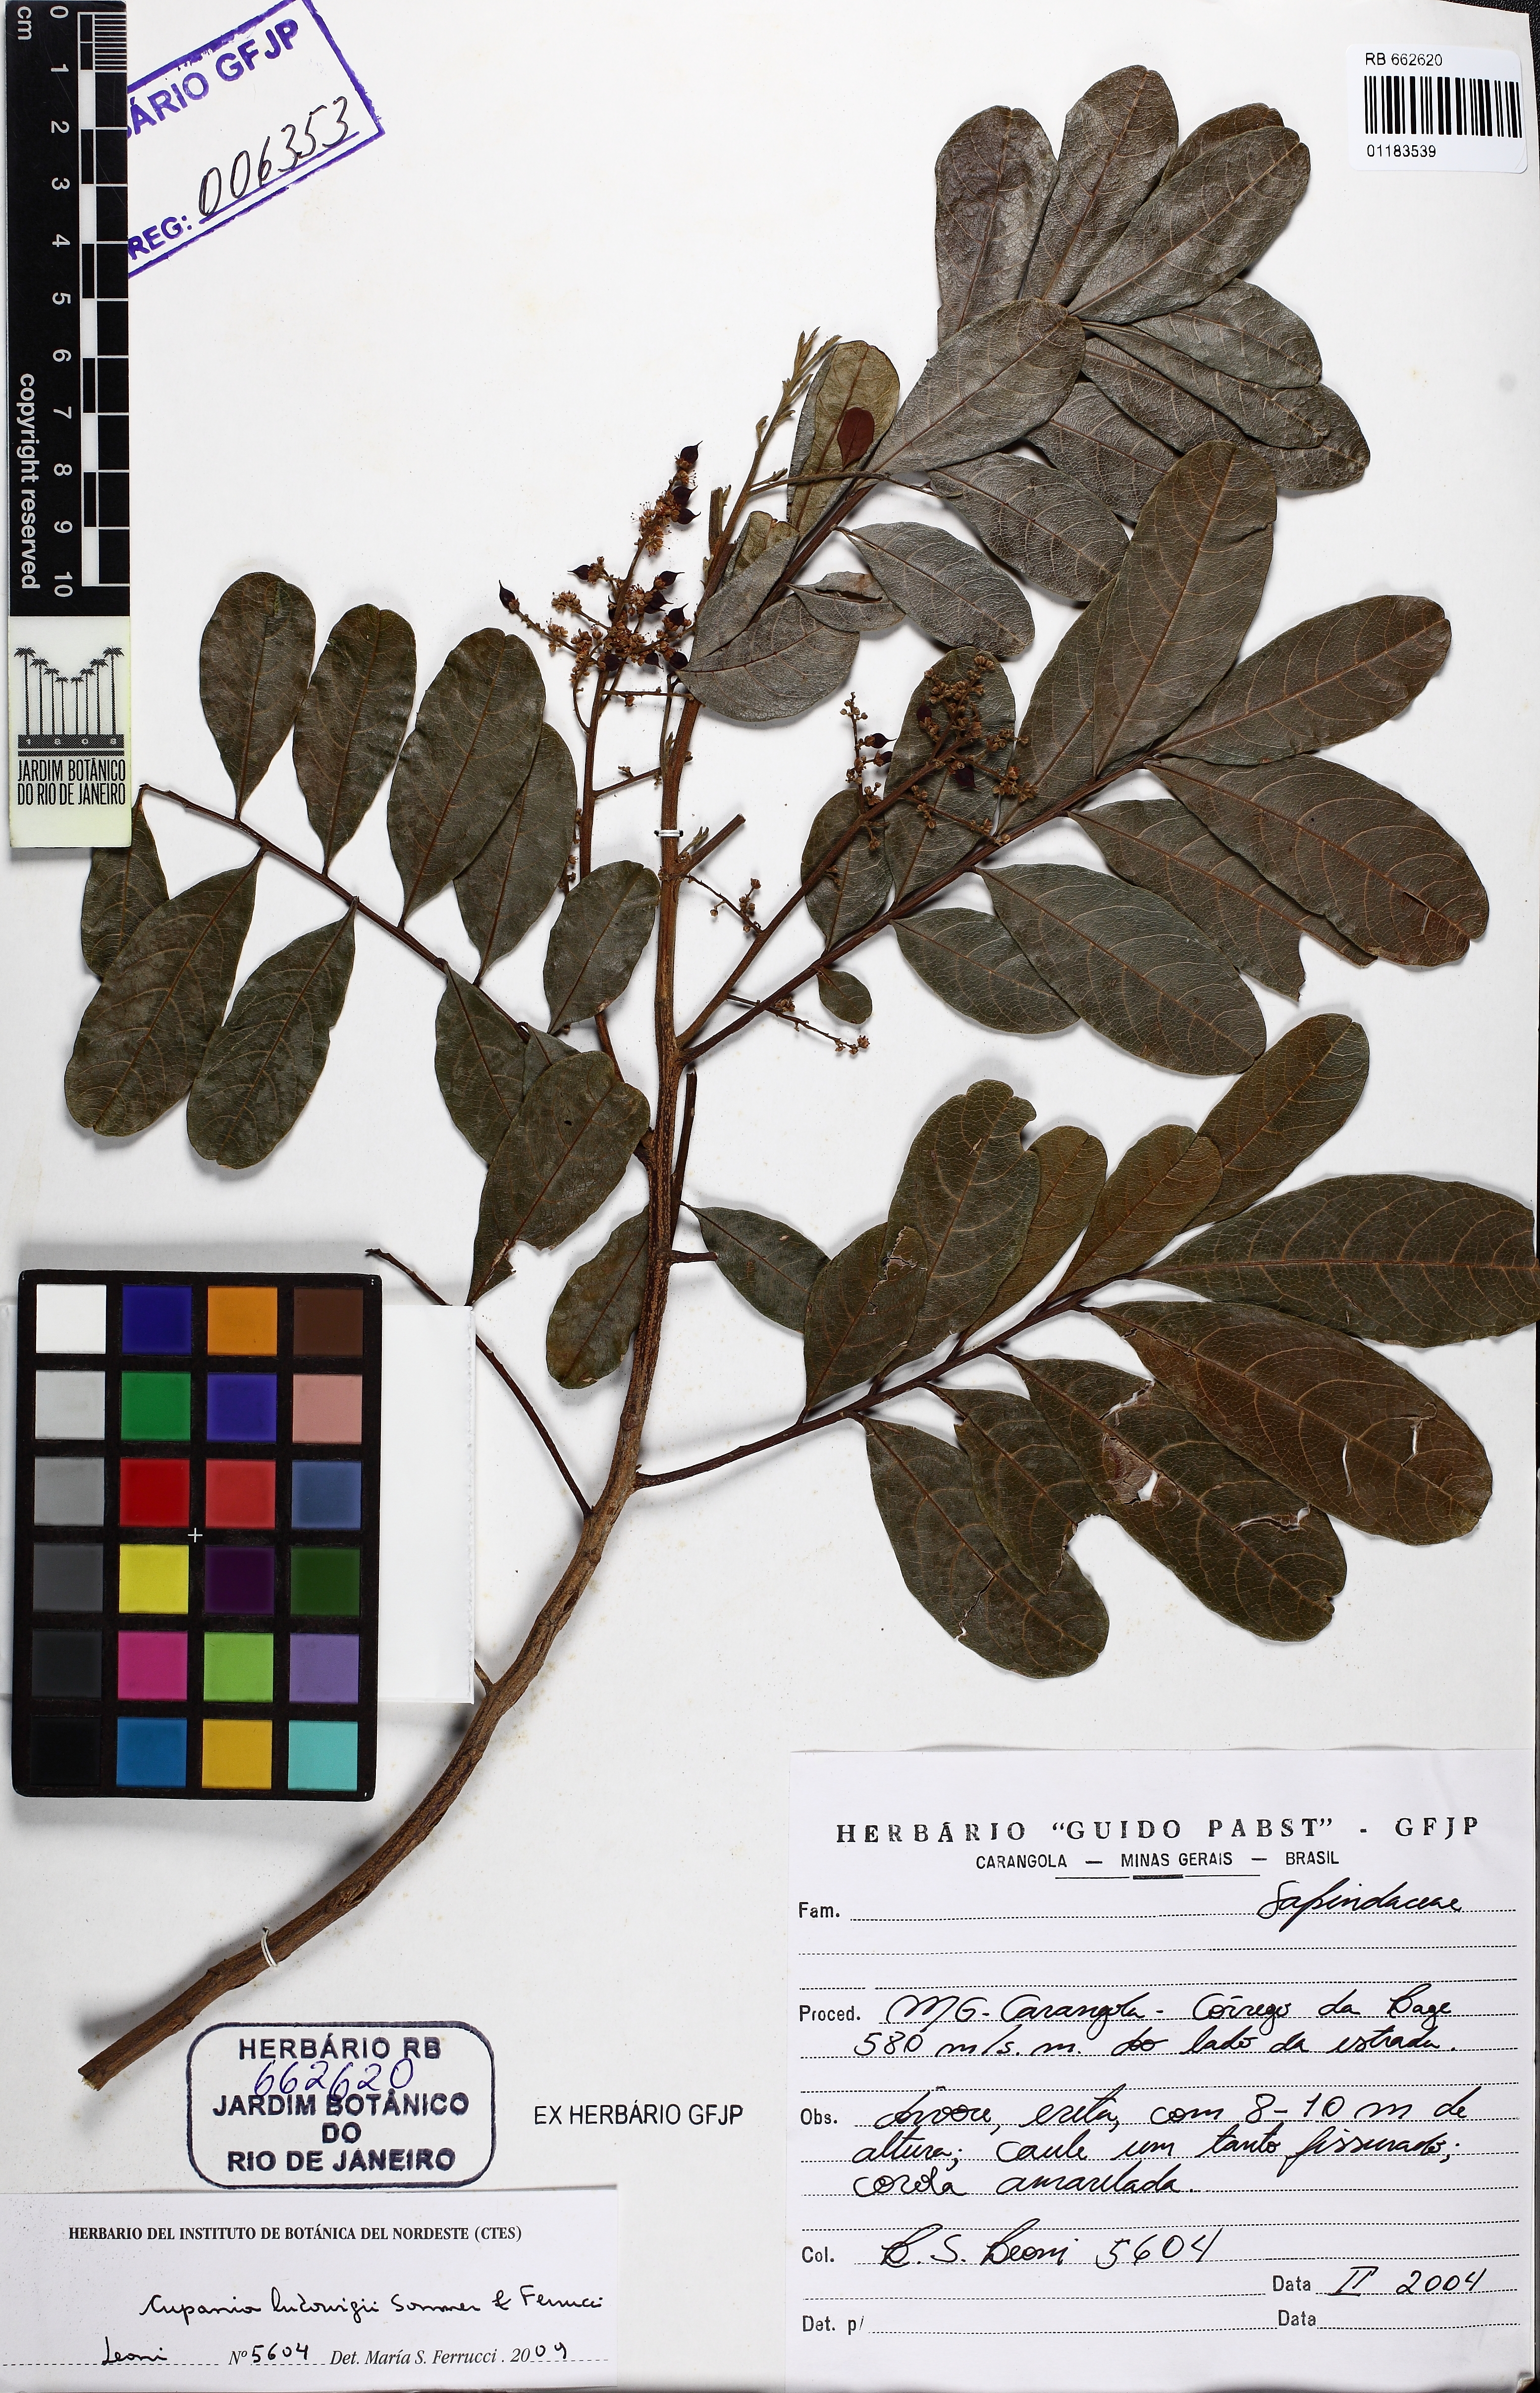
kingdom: Plantae
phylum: Tracheophyta
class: Magnoliopsida
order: Sapindales
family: Sapindaceae
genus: Cupania
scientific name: Cupania ludowigii
